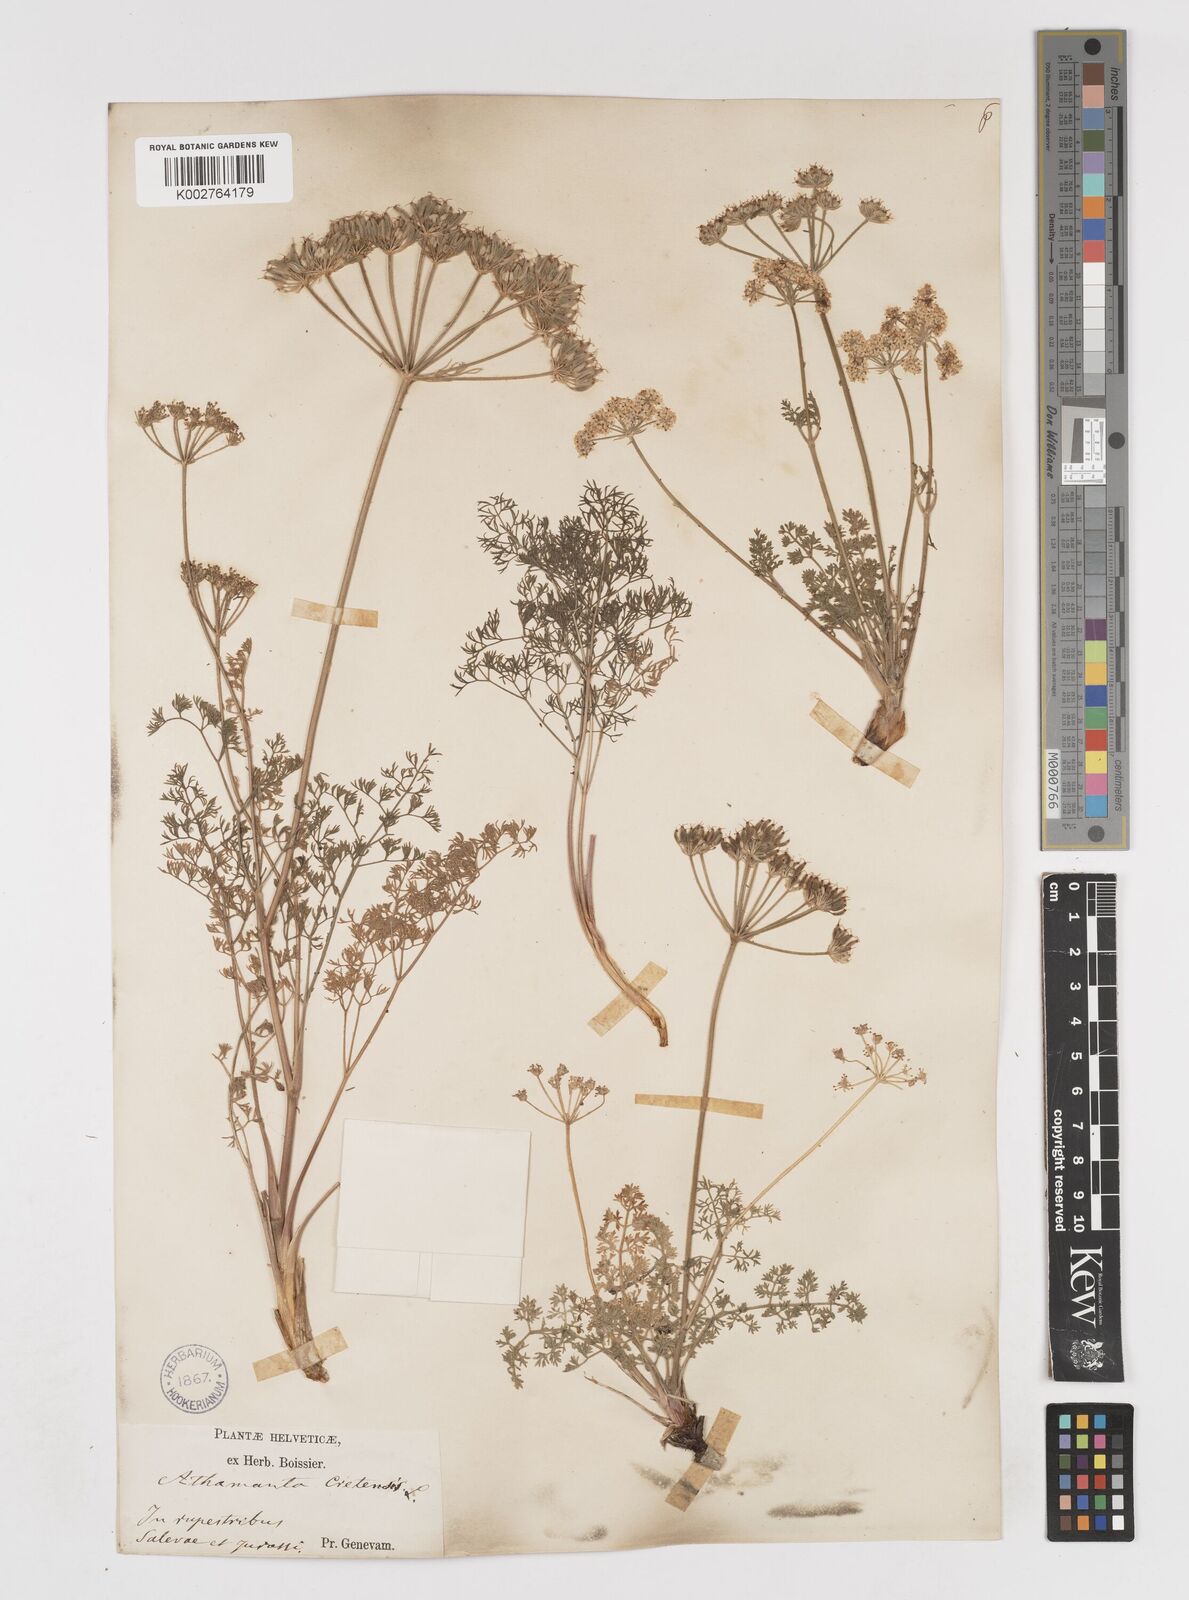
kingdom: Plantae
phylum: Tracheophyta
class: Magnoliopsida
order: Apiales
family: Apiaceae
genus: Athamanta
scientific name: Athamanta cretensis
